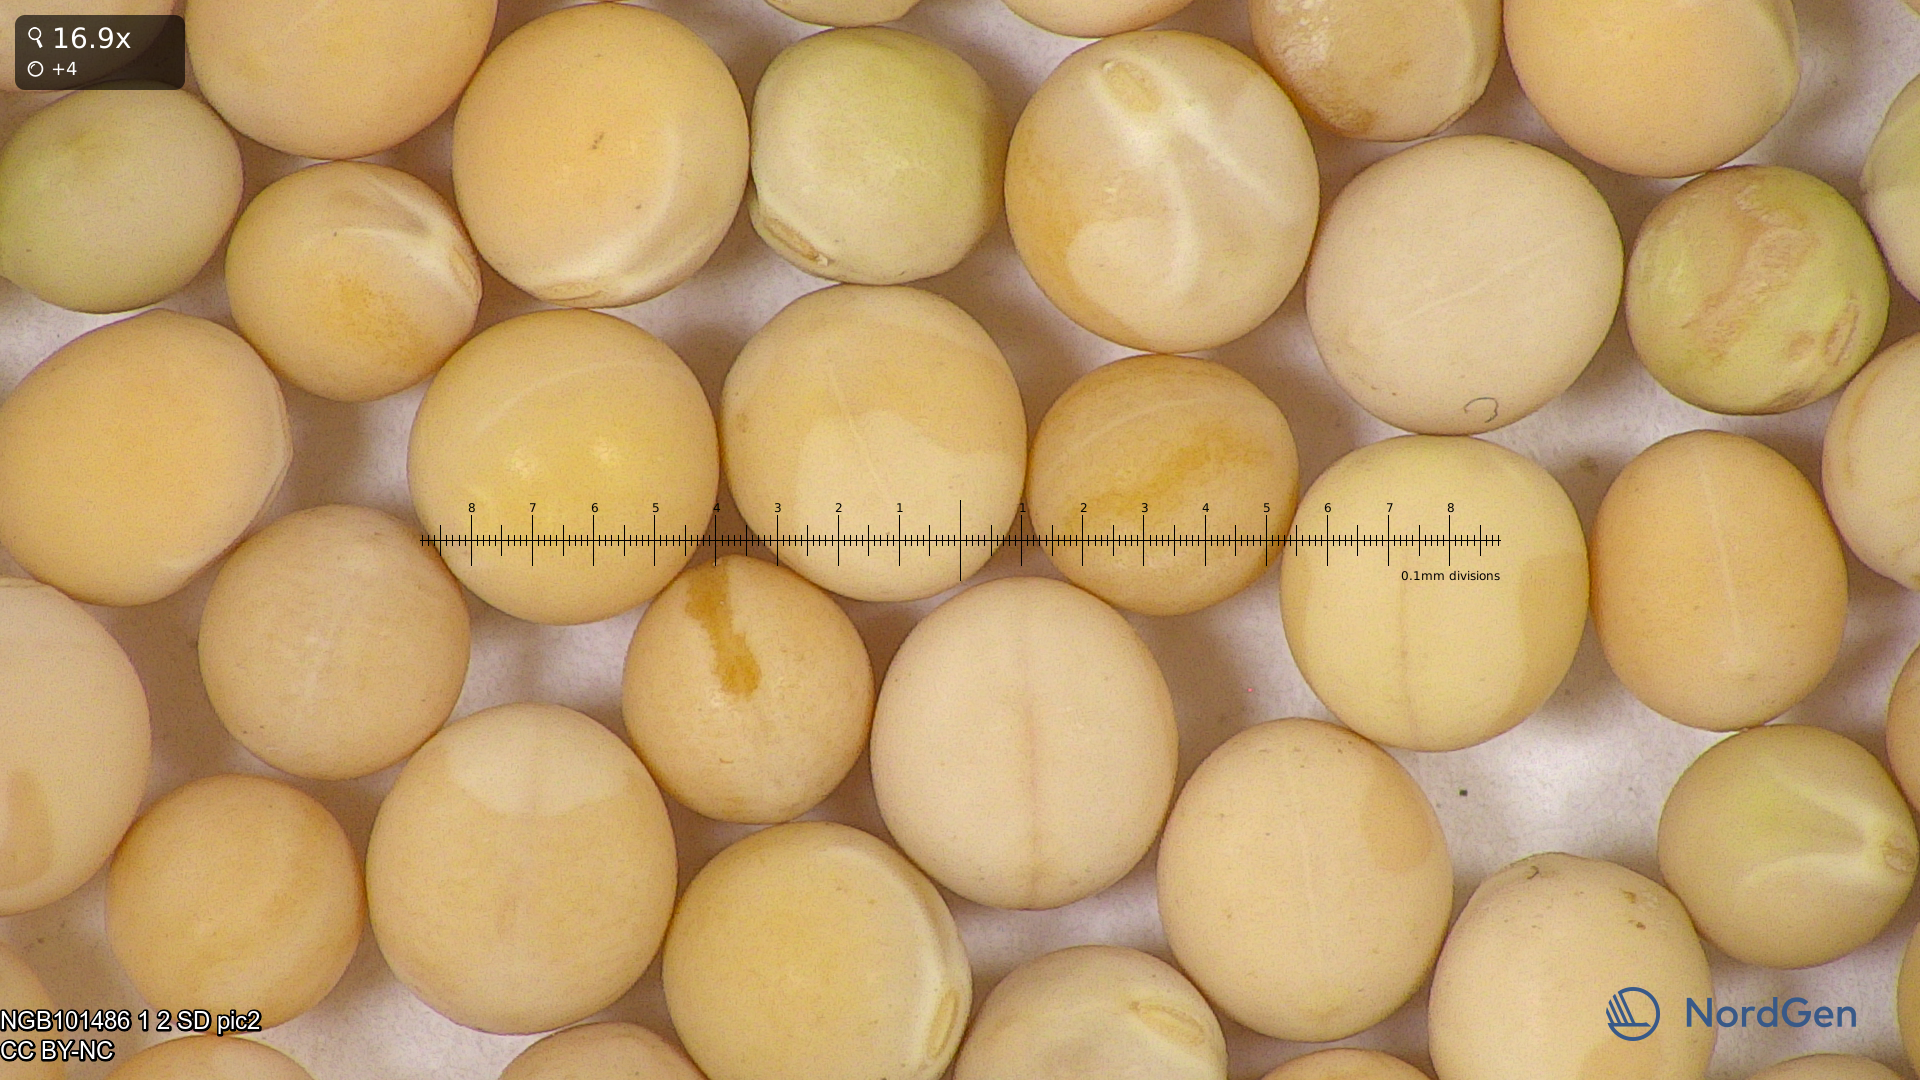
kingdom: Plantae
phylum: Tracheophyta
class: Magnoliopsida
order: Fabales
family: Fabaceae
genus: Lathyrus
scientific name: Lathyrus oleraceus
